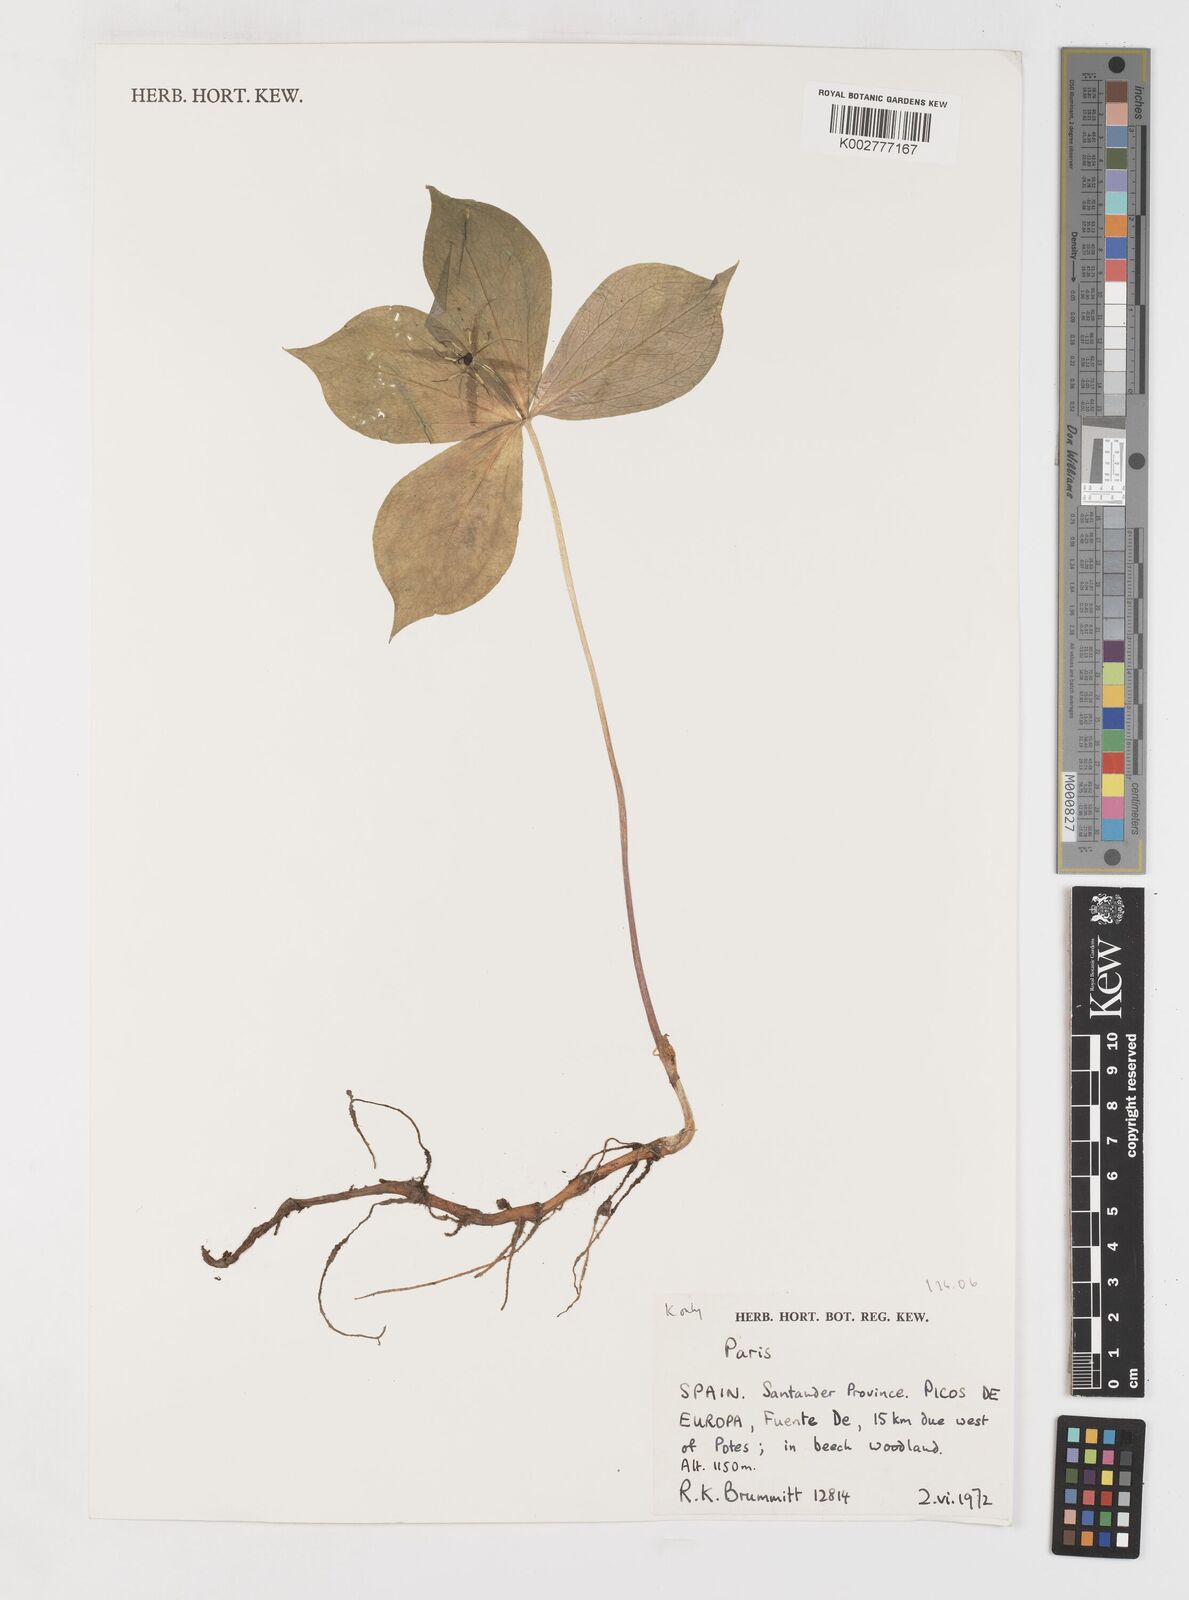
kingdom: Plantae
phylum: Tracheophyta
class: Liliopsida
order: Liliales
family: Melanthiaceae
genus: Paris
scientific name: Paris quadrifolia
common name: Herb-paris
